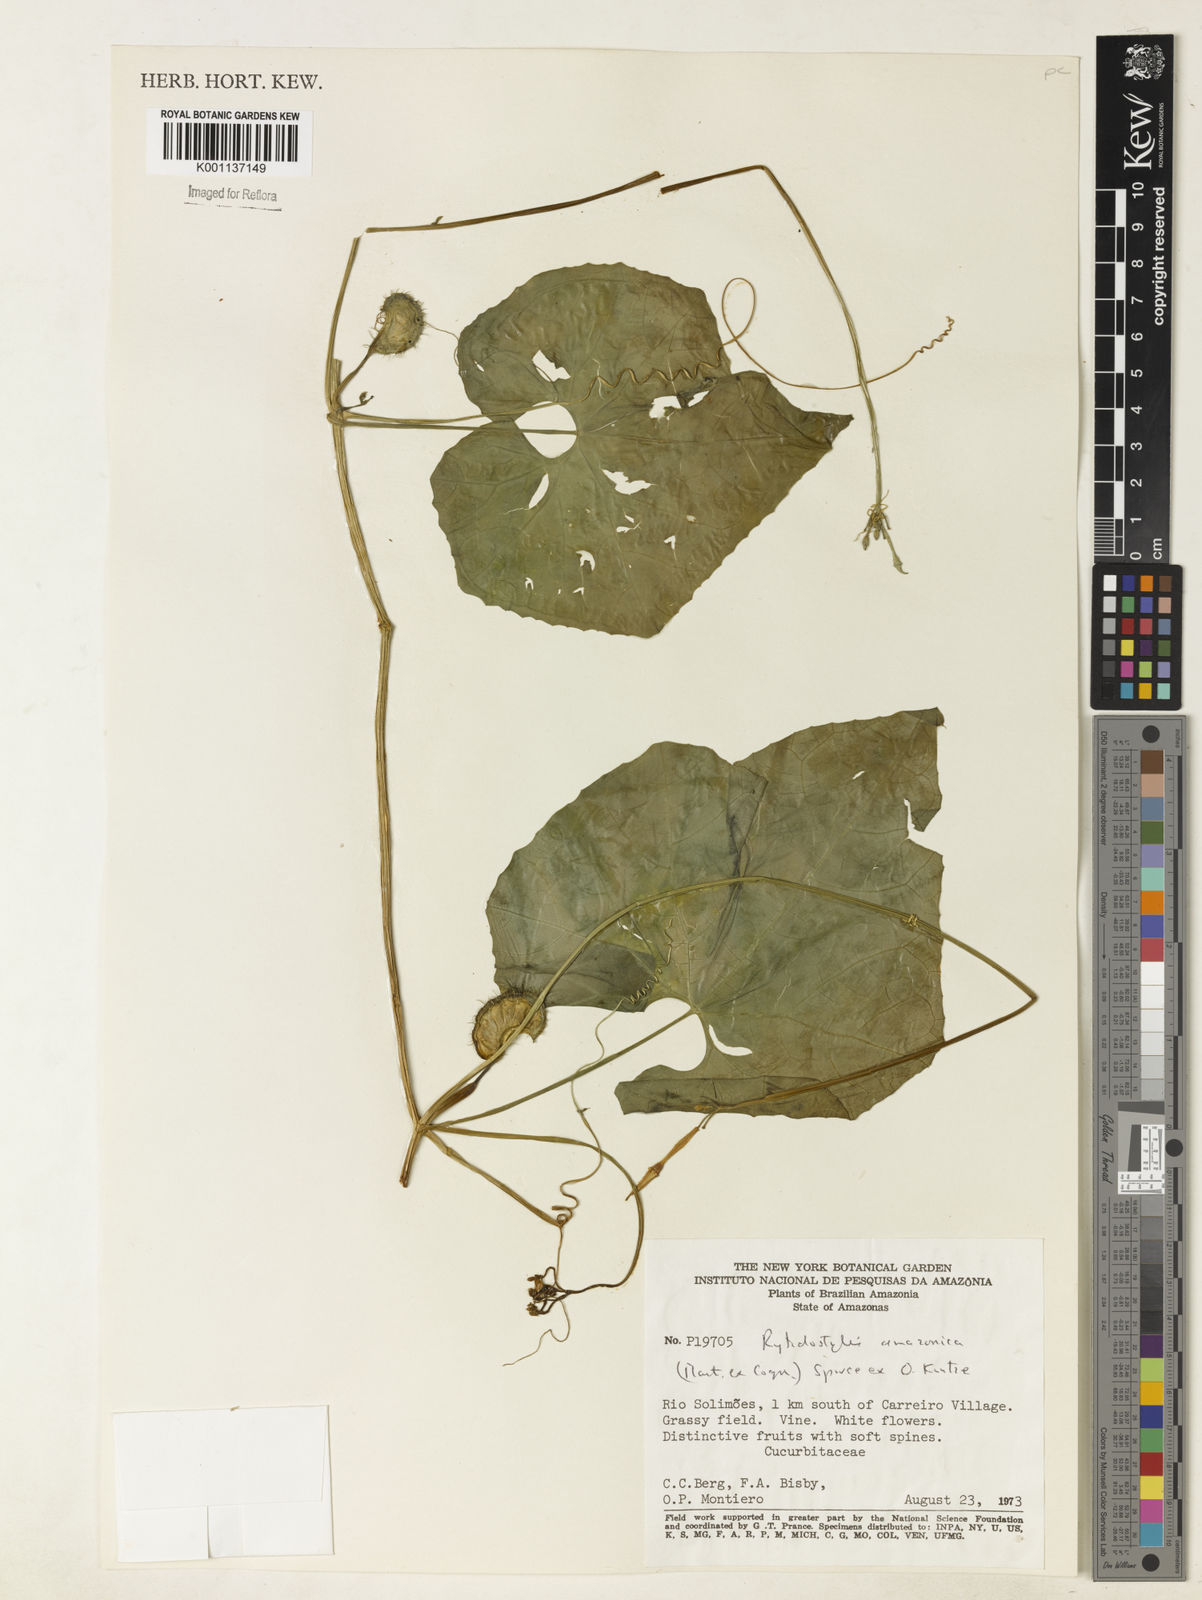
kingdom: Plantae
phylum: Tracheophyta
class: Magnoliopsida
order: Cucurbitales
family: Cucurbitaceae
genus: Cyclanthera
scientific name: Cyclanthera carthagenensis
